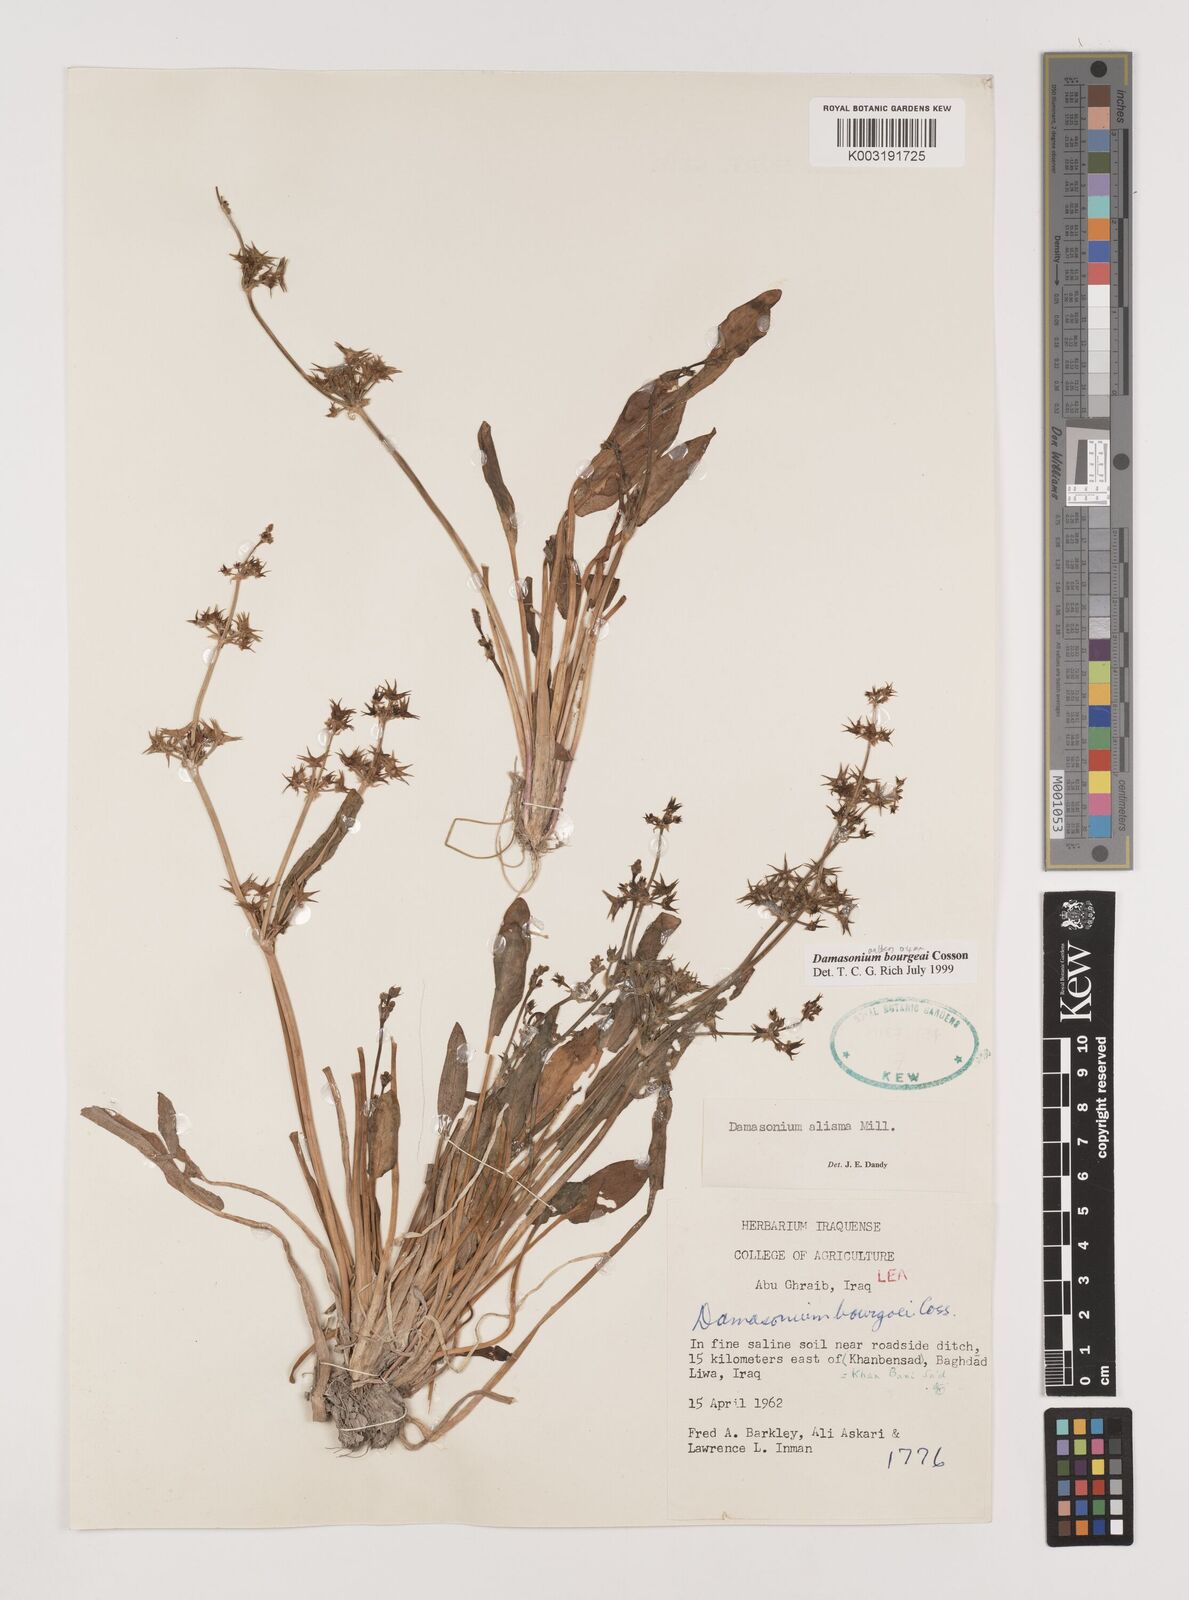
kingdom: Plantae
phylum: Tracheophyta
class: Liliopsida
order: Alismatales
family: Alismataceae
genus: Damasonium
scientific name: Damasonium alisma
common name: Starfruit
